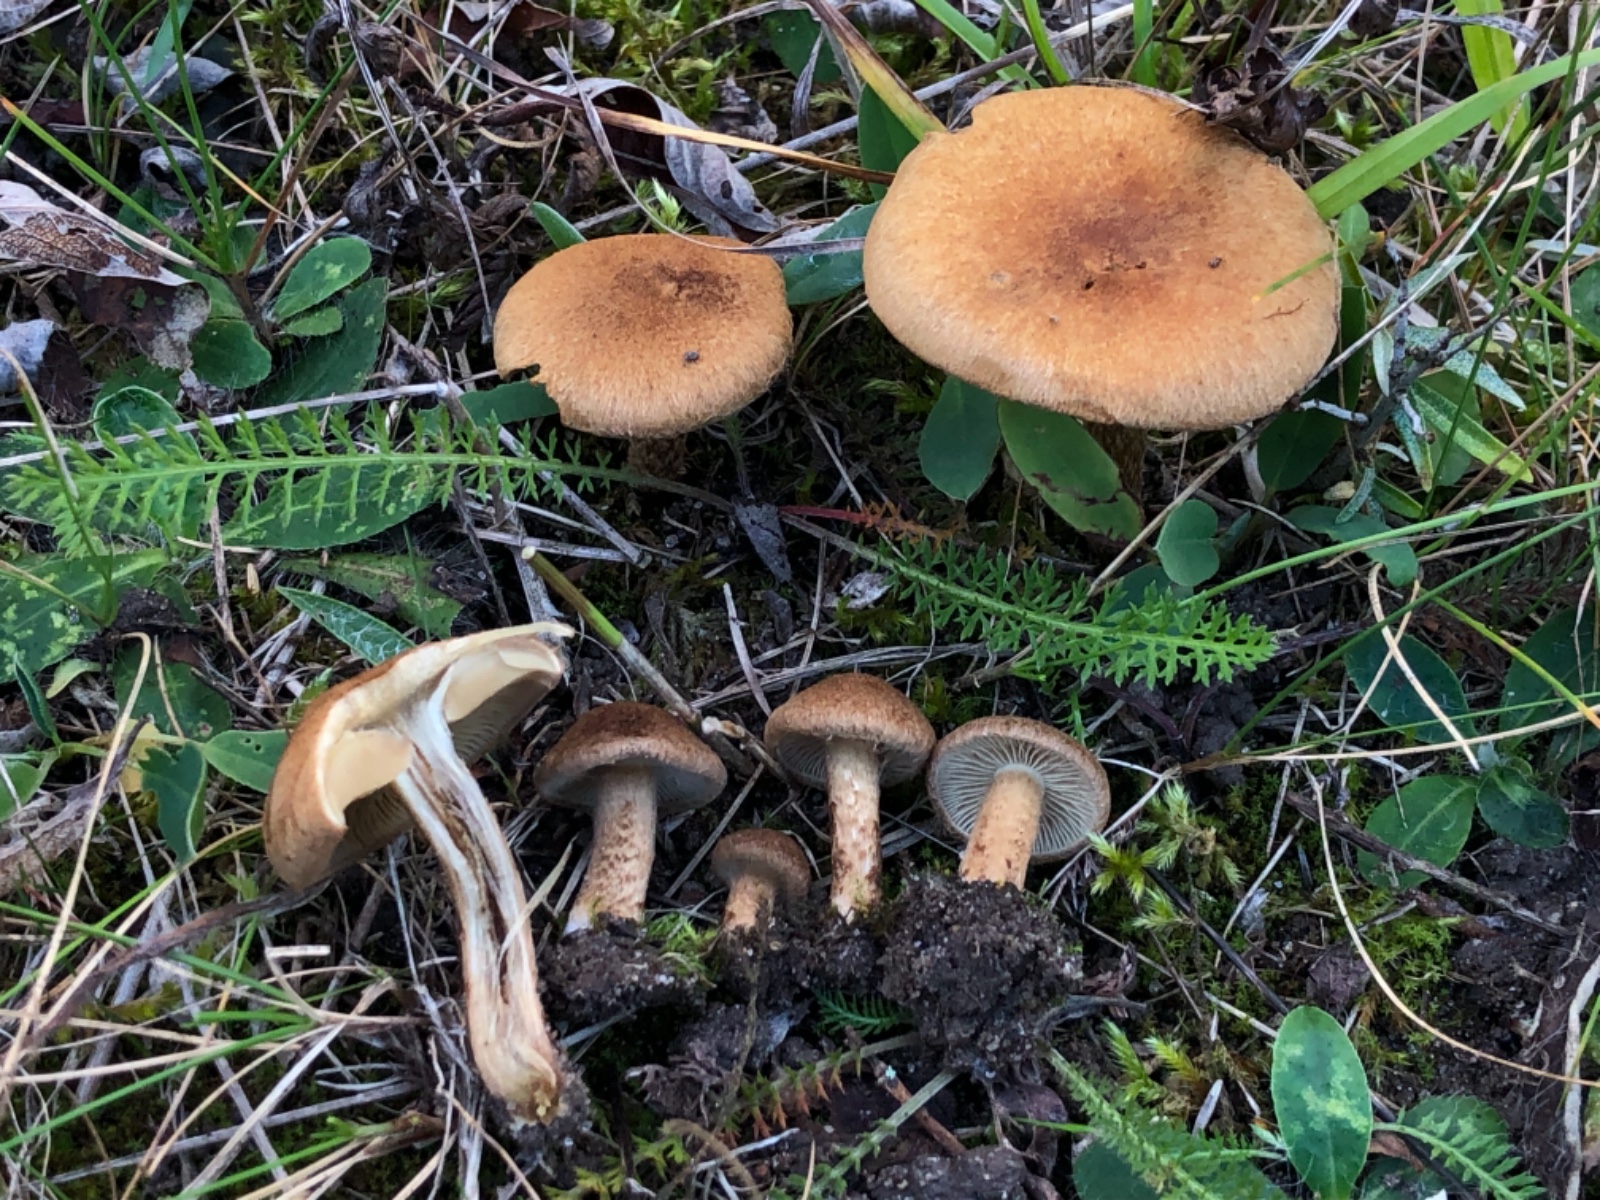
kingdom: Fungi
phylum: Basidiomycota
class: Agaricomycetes
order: Agaricales
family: Inocybaceae
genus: Mallocybe
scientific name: Mallocybe plebeia
